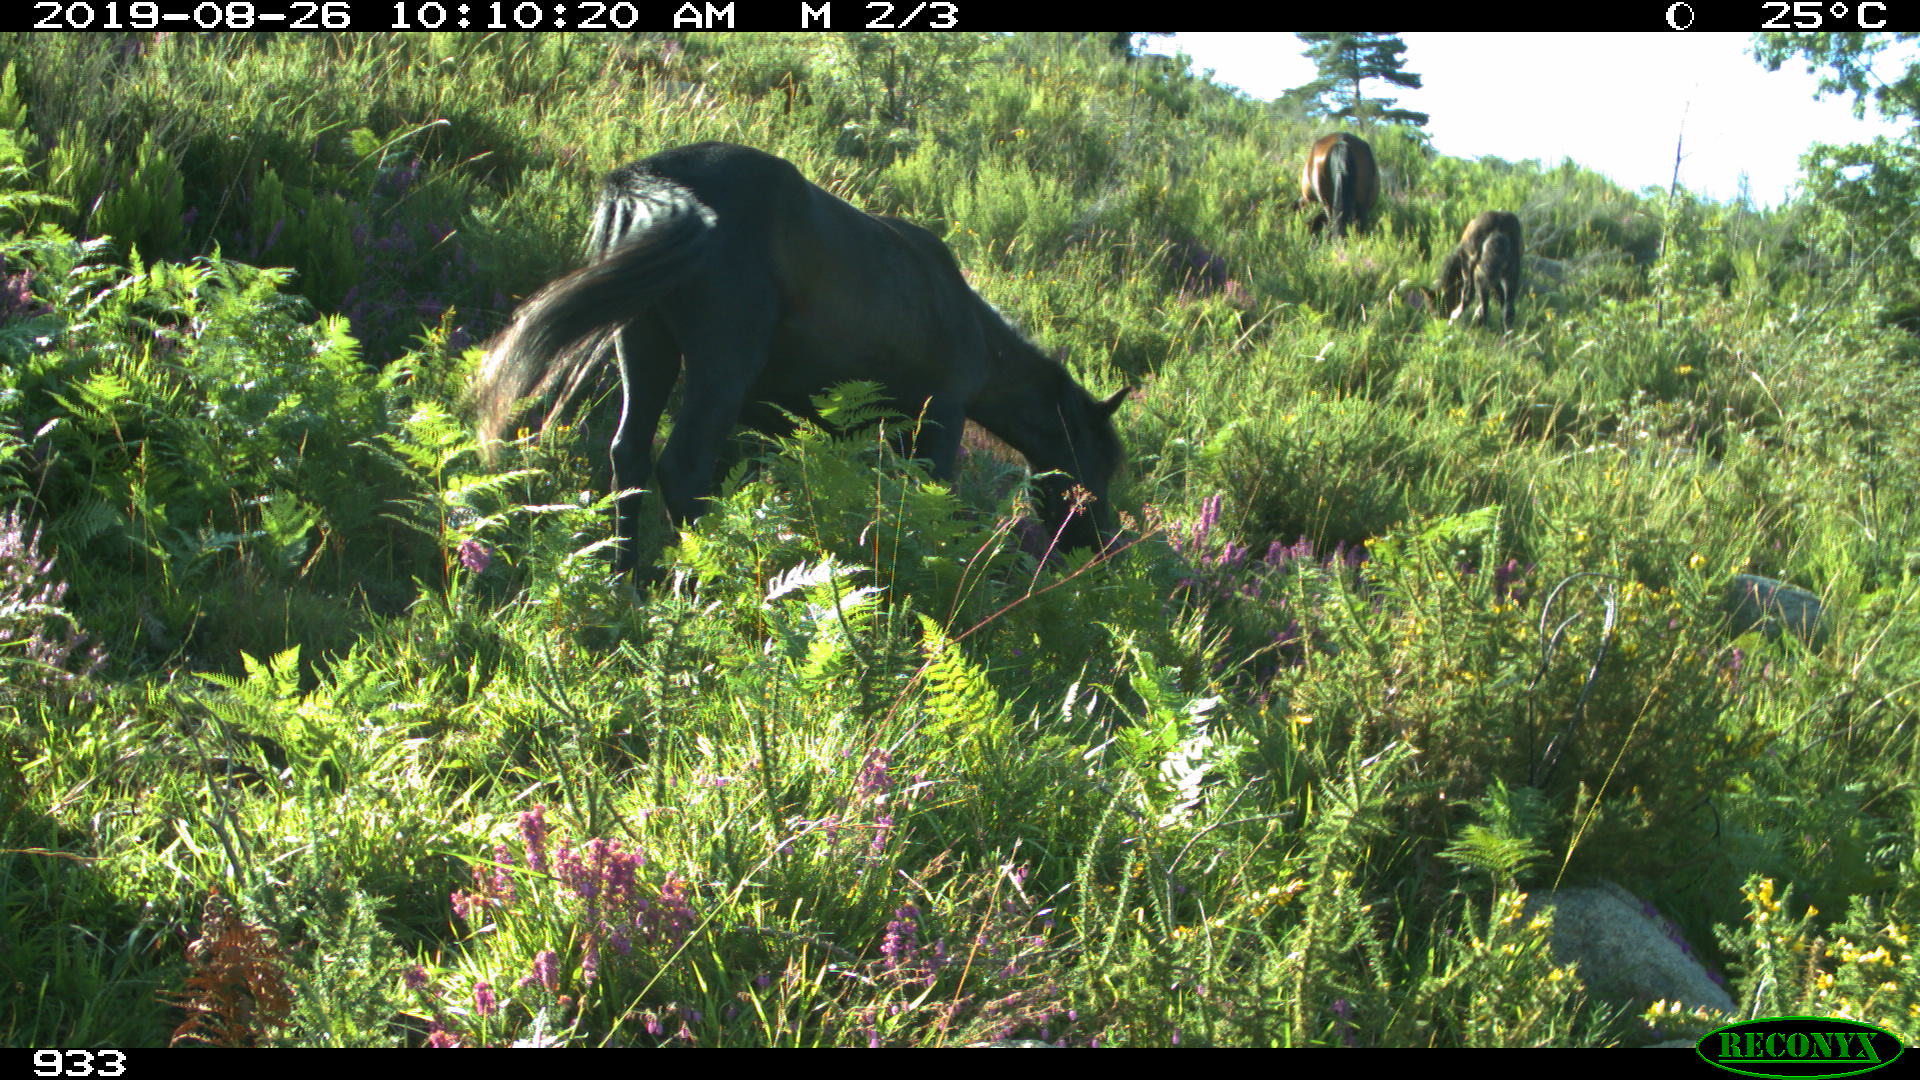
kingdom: Animalia
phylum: Chordata
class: Mammalia
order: Perissodactyla
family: Equidae
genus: Equus
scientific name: Equus caballus
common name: Horse
